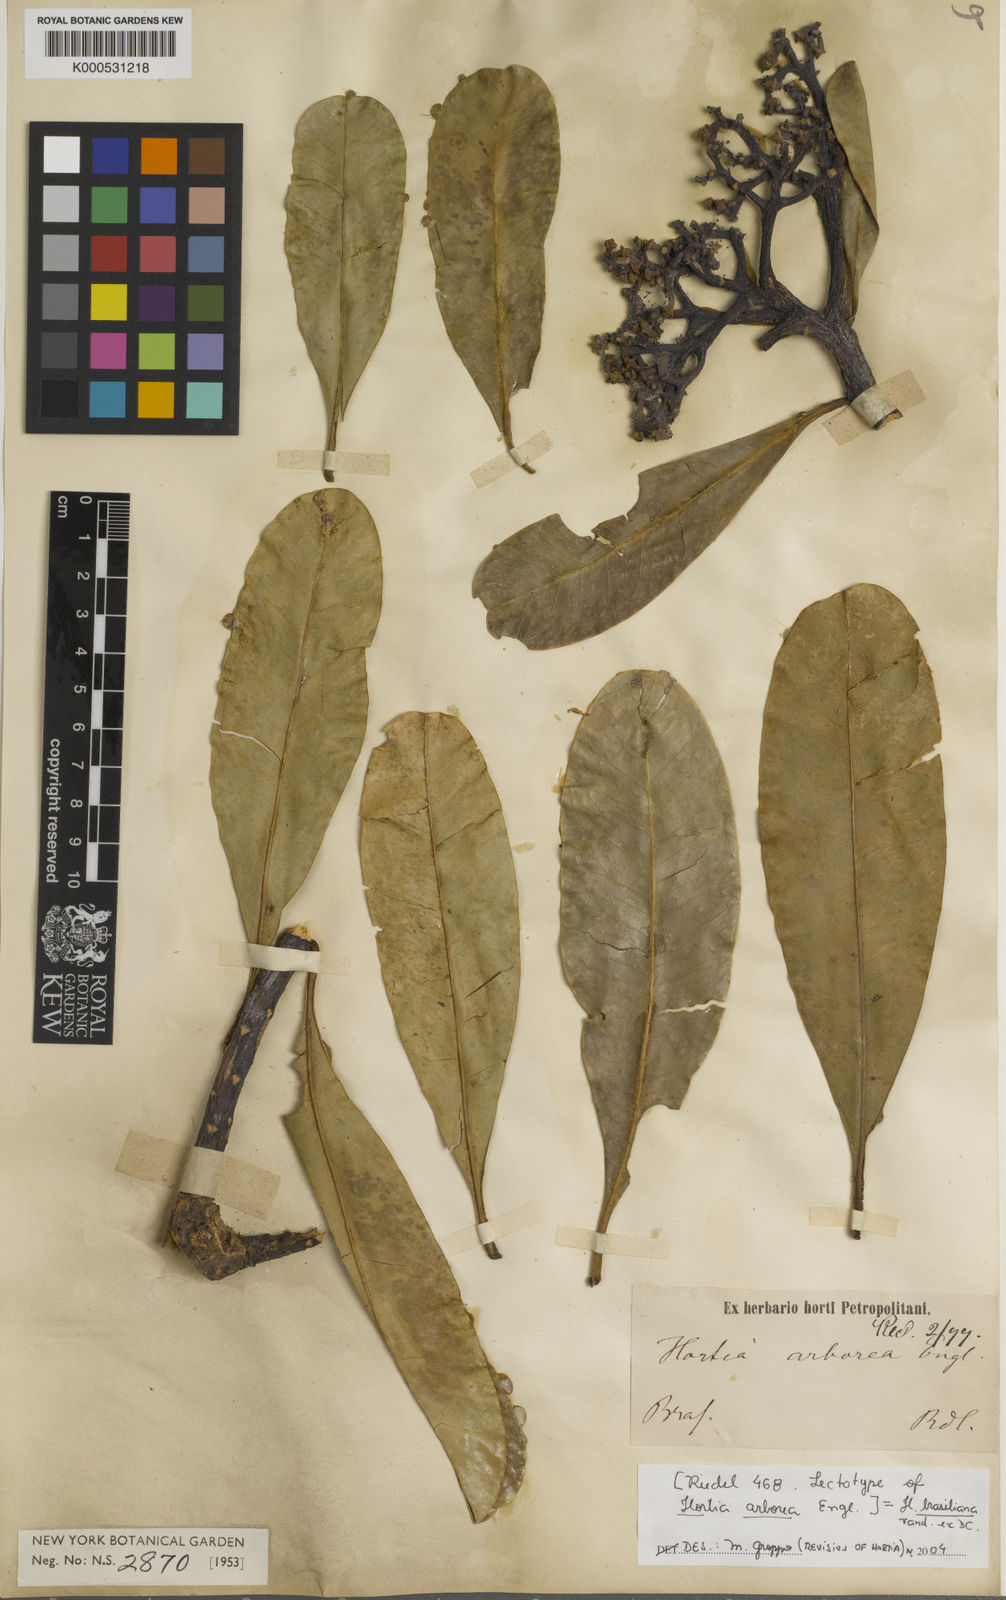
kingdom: Plantae
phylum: Tracheophyta
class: Magnoliopsida
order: Sapindales
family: Rutaceae
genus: Hortia
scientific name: Hortia brasiliana
